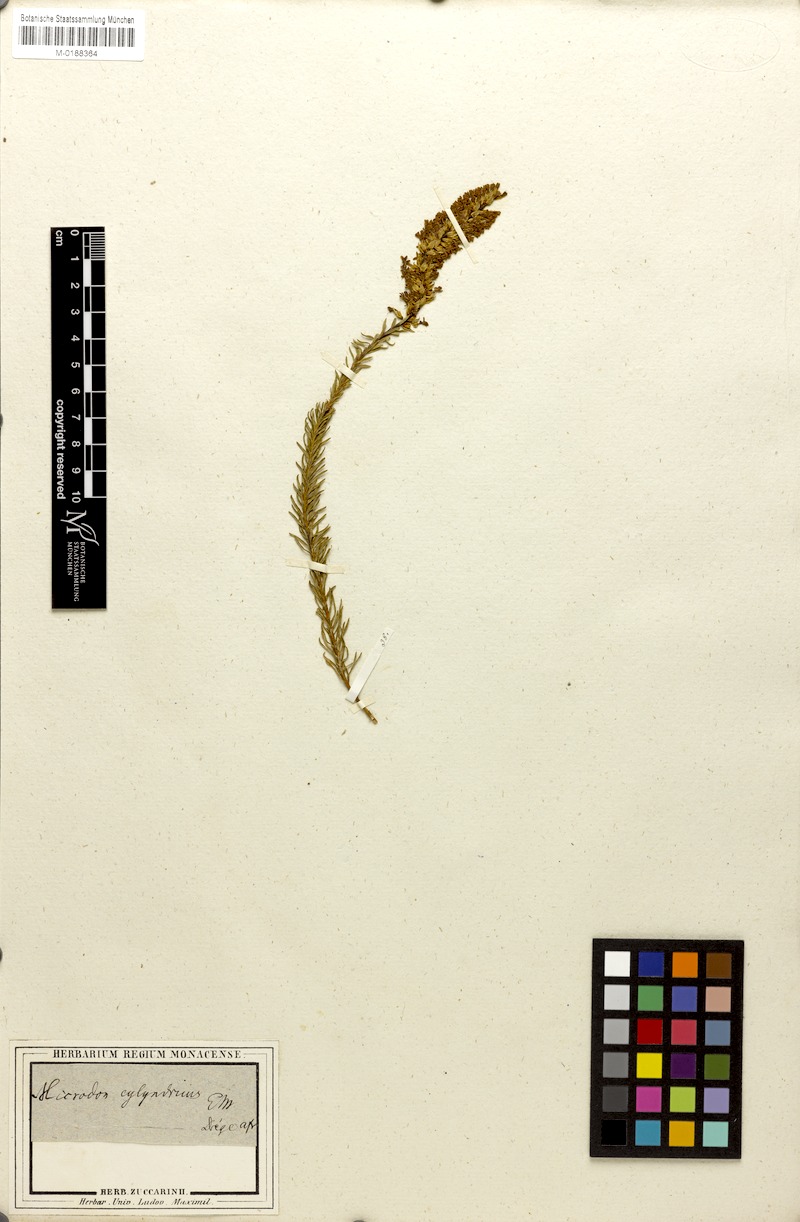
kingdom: Plantae
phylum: Tracheophyta
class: Magnoliopsida
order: Lamiales
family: Scrophulariaceae
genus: Microdon
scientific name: Microdon polygaloides
